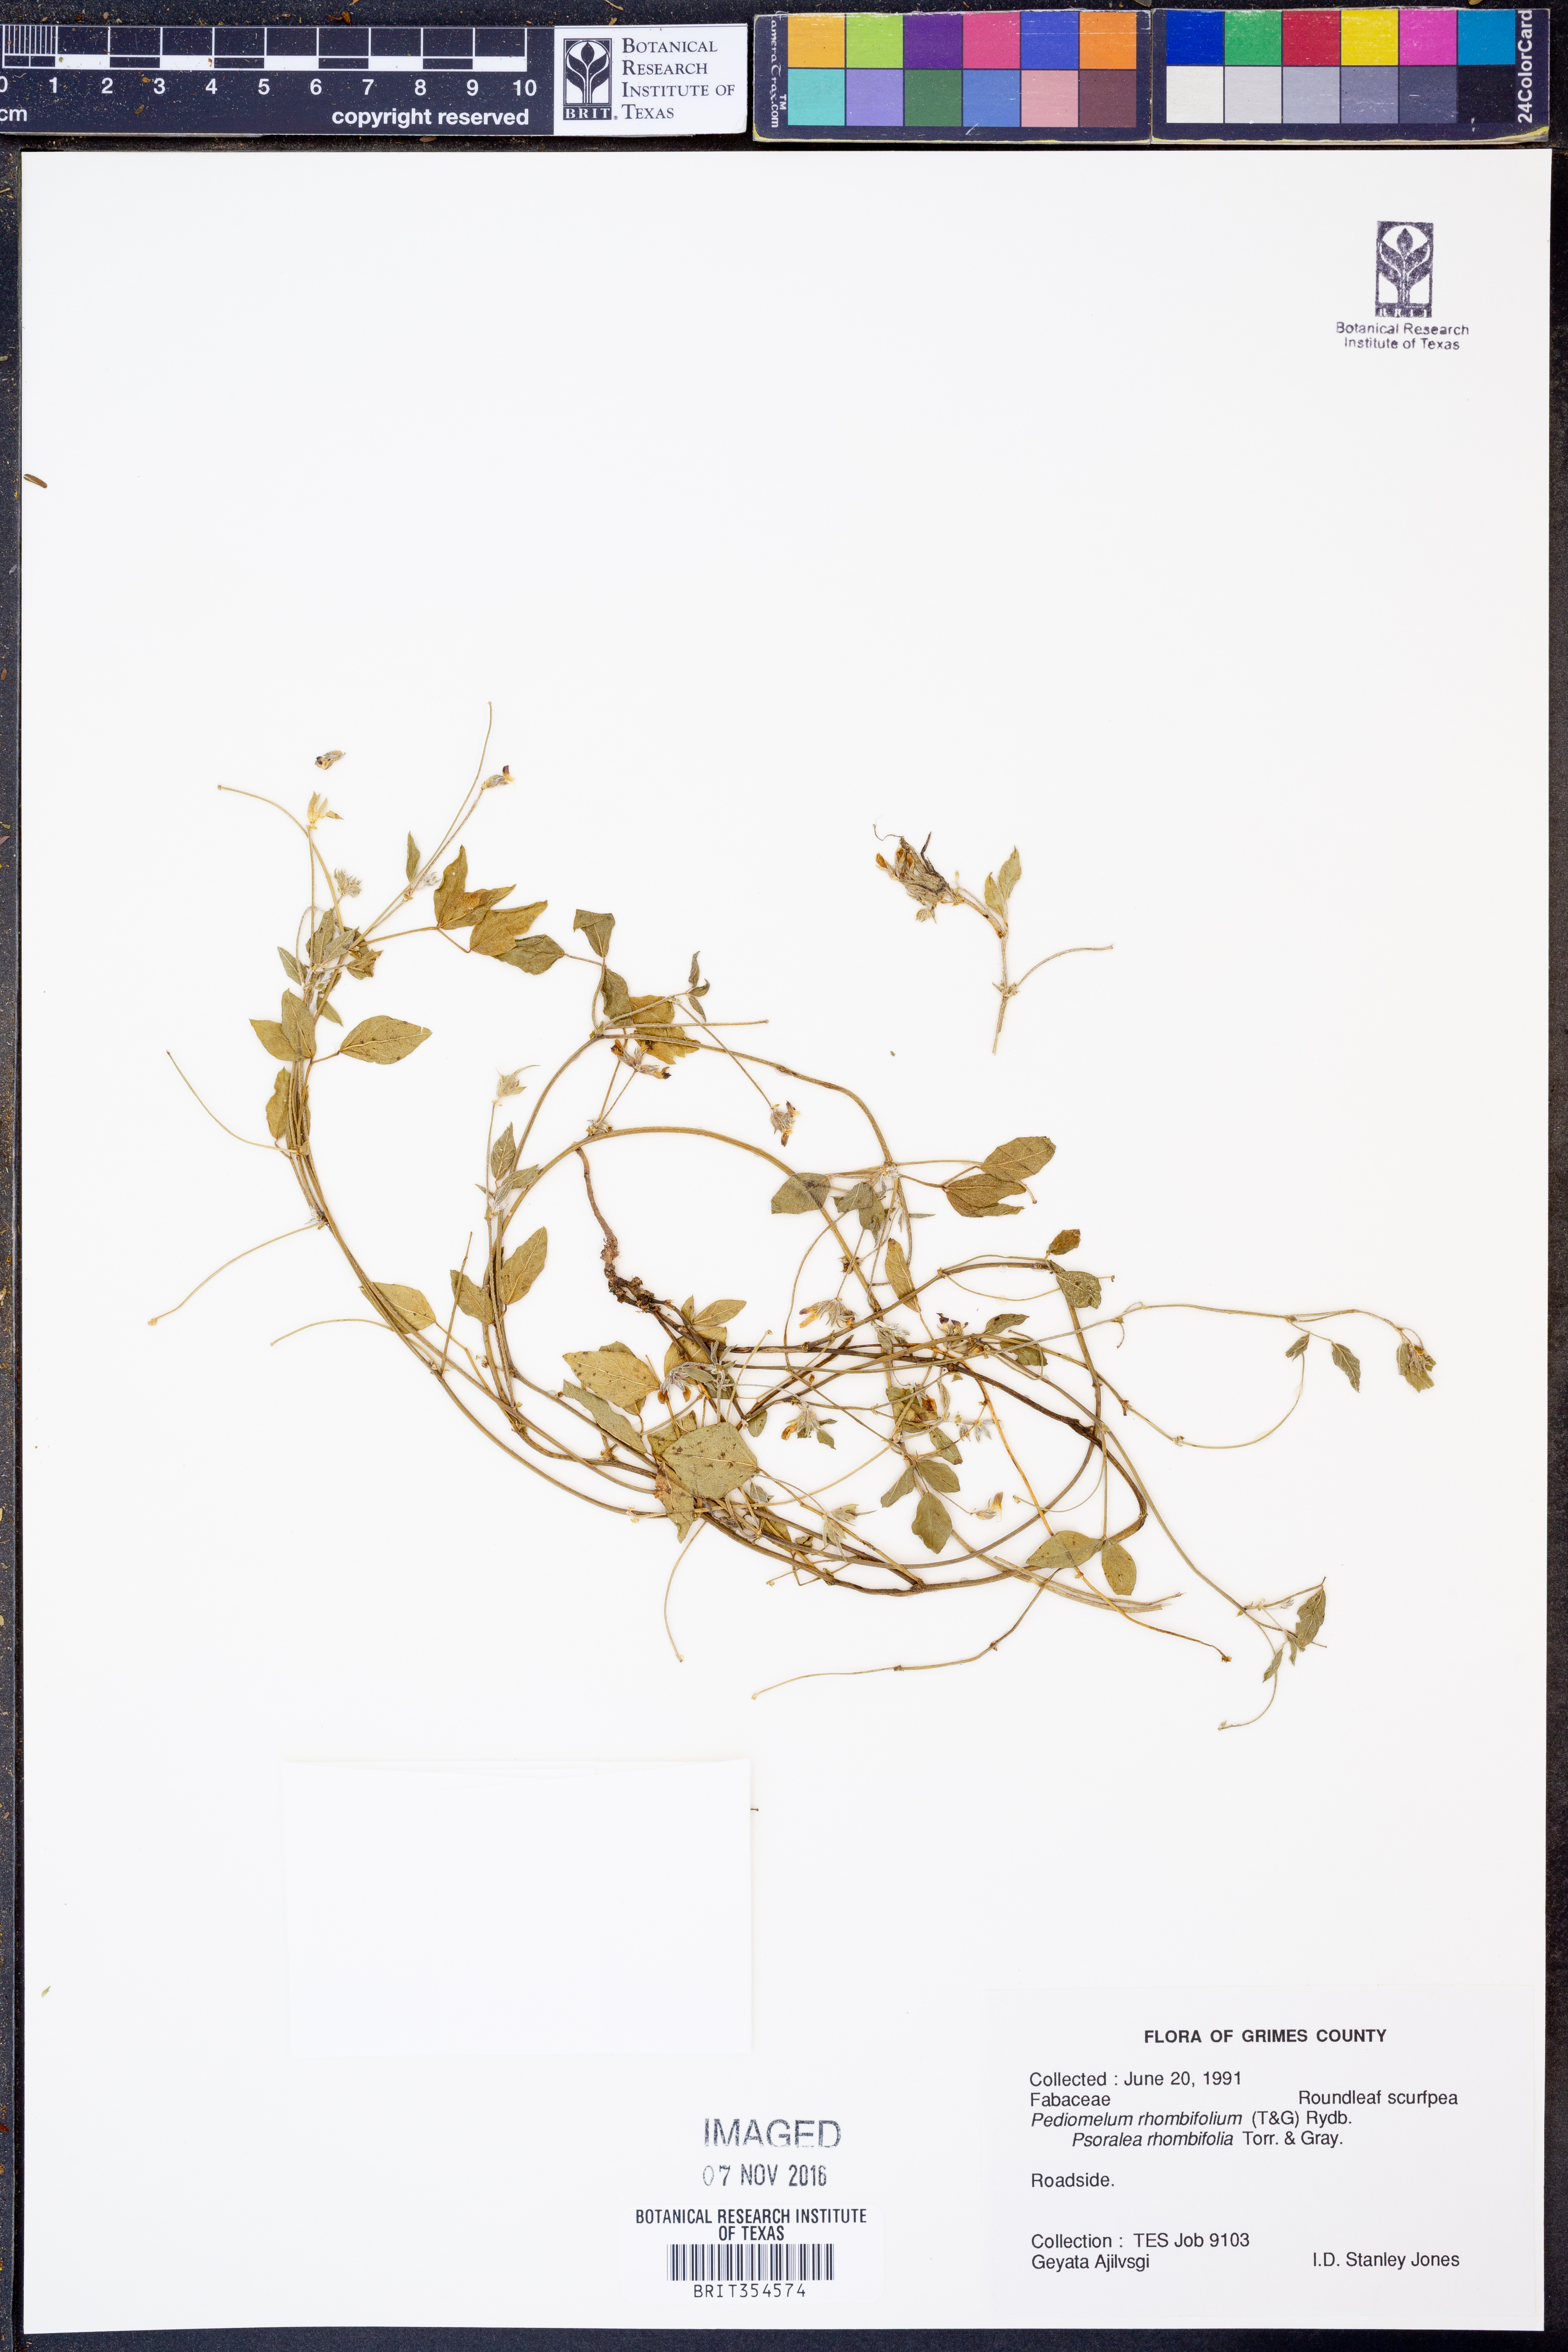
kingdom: Plantae
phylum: Tracheophyta
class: Magnoliopsida
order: Fabales
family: Fabaceae
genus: Pediomelum
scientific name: Pediomelum rhombifolium
